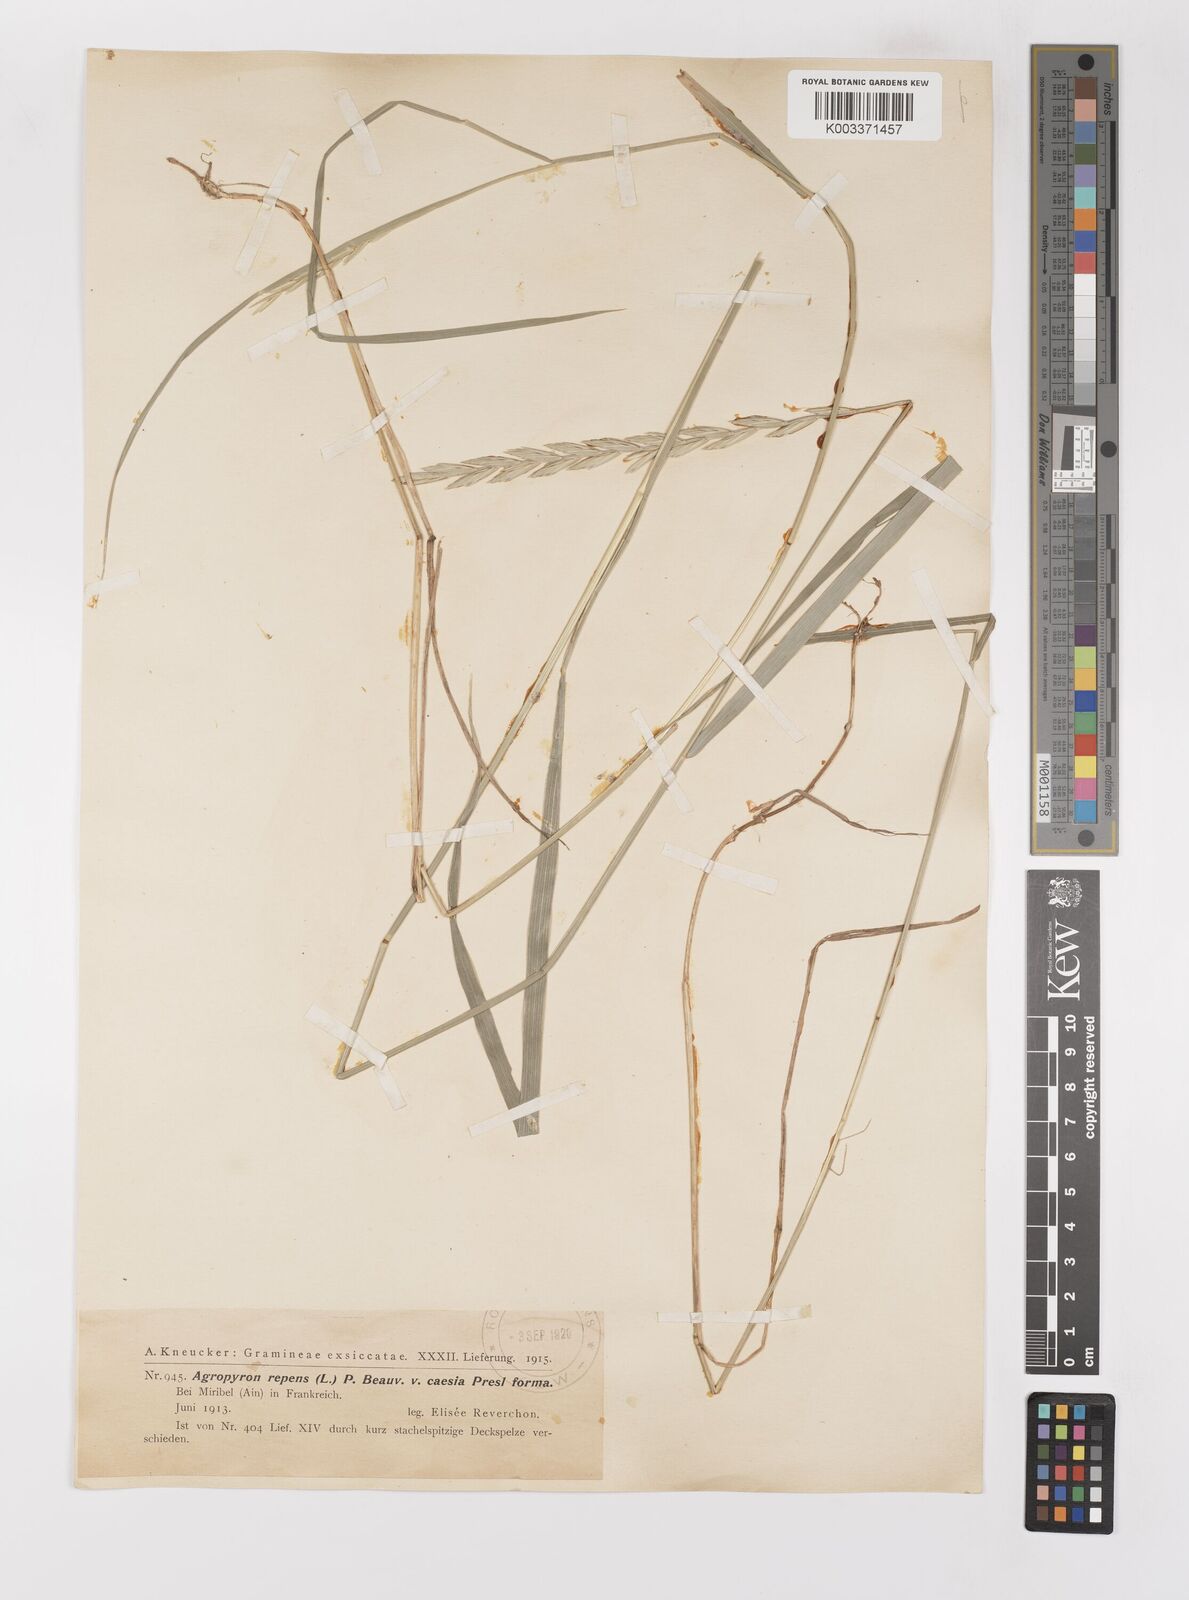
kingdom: Plantae
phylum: Tracheophyta
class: Liliopsida
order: Poales
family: Poaceae
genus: Elymus
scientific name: Elymus repens
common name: Quackgrass
